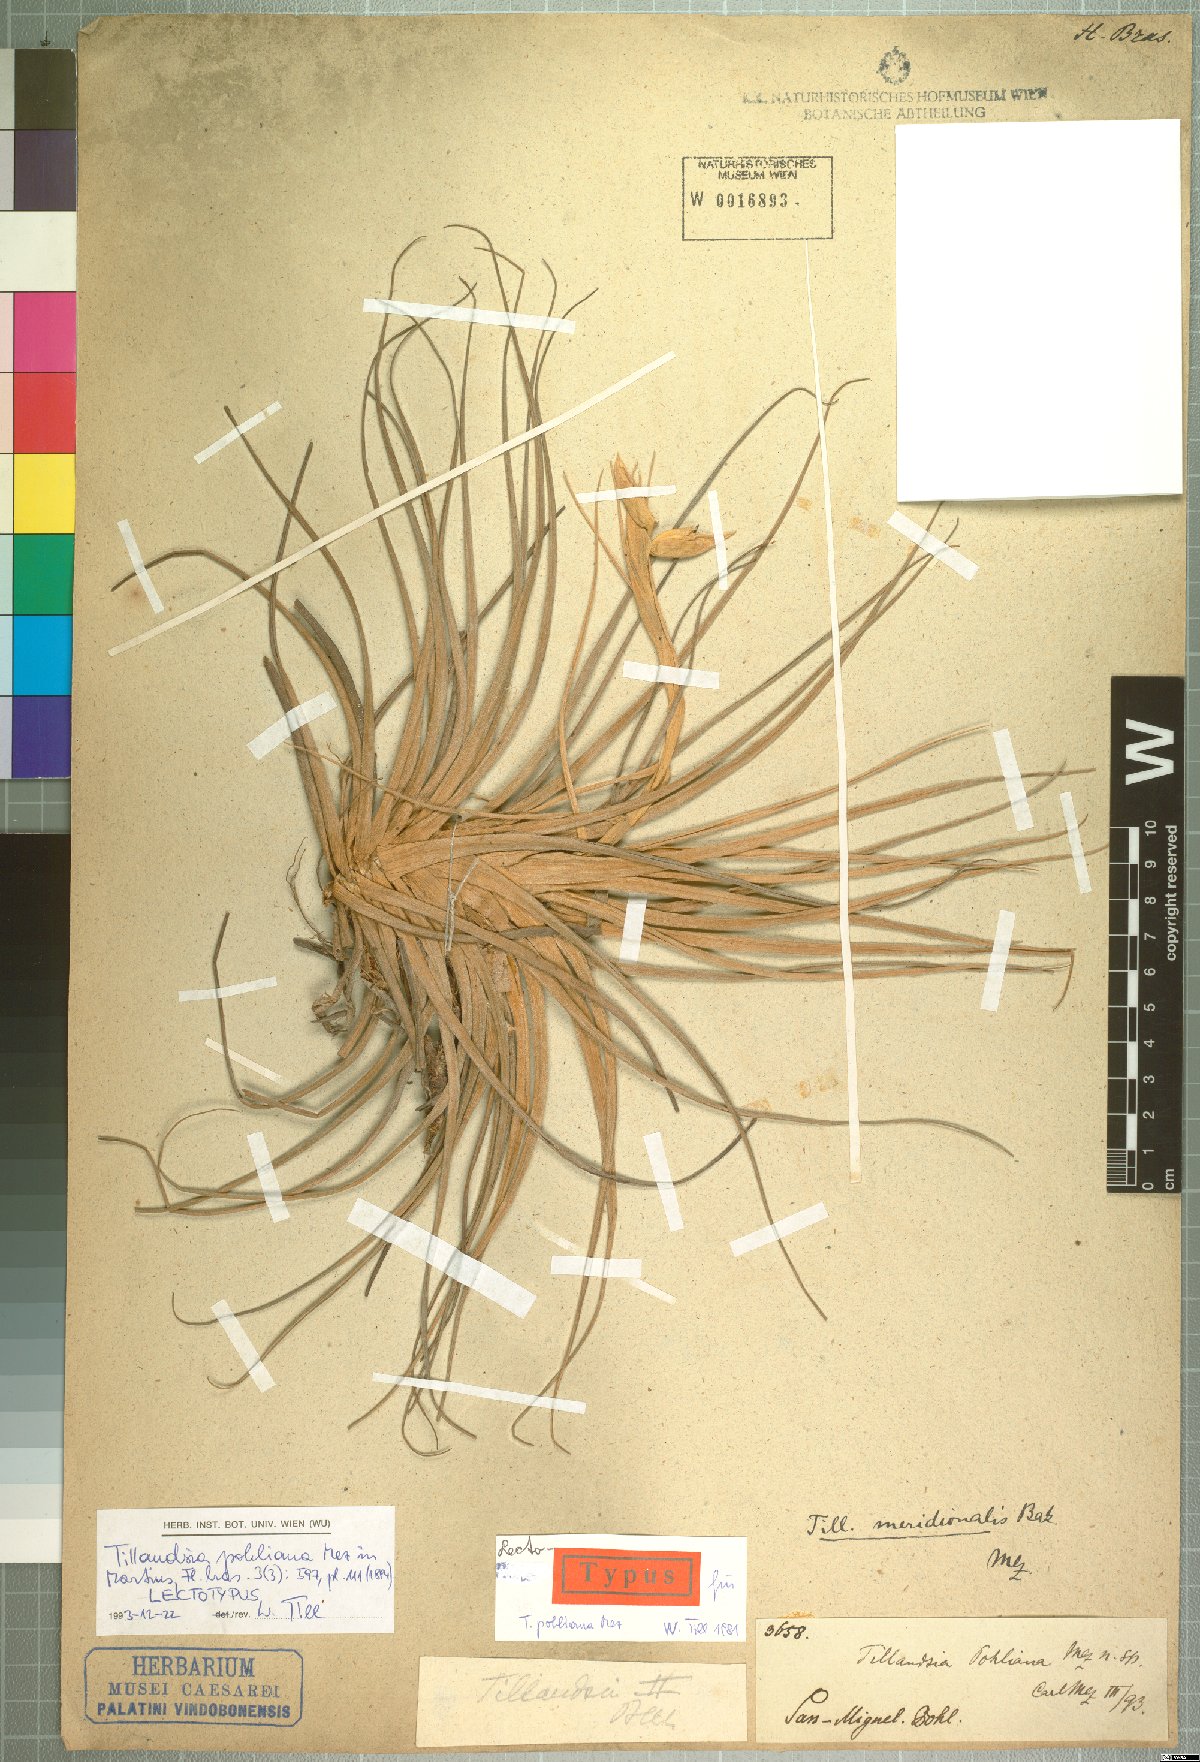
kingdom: Plantae
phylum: Tracheophyta
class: Liliopsida
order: Poales
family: Bromeliaceae
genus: Tillandsia
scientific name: Tillandsia pohliana
